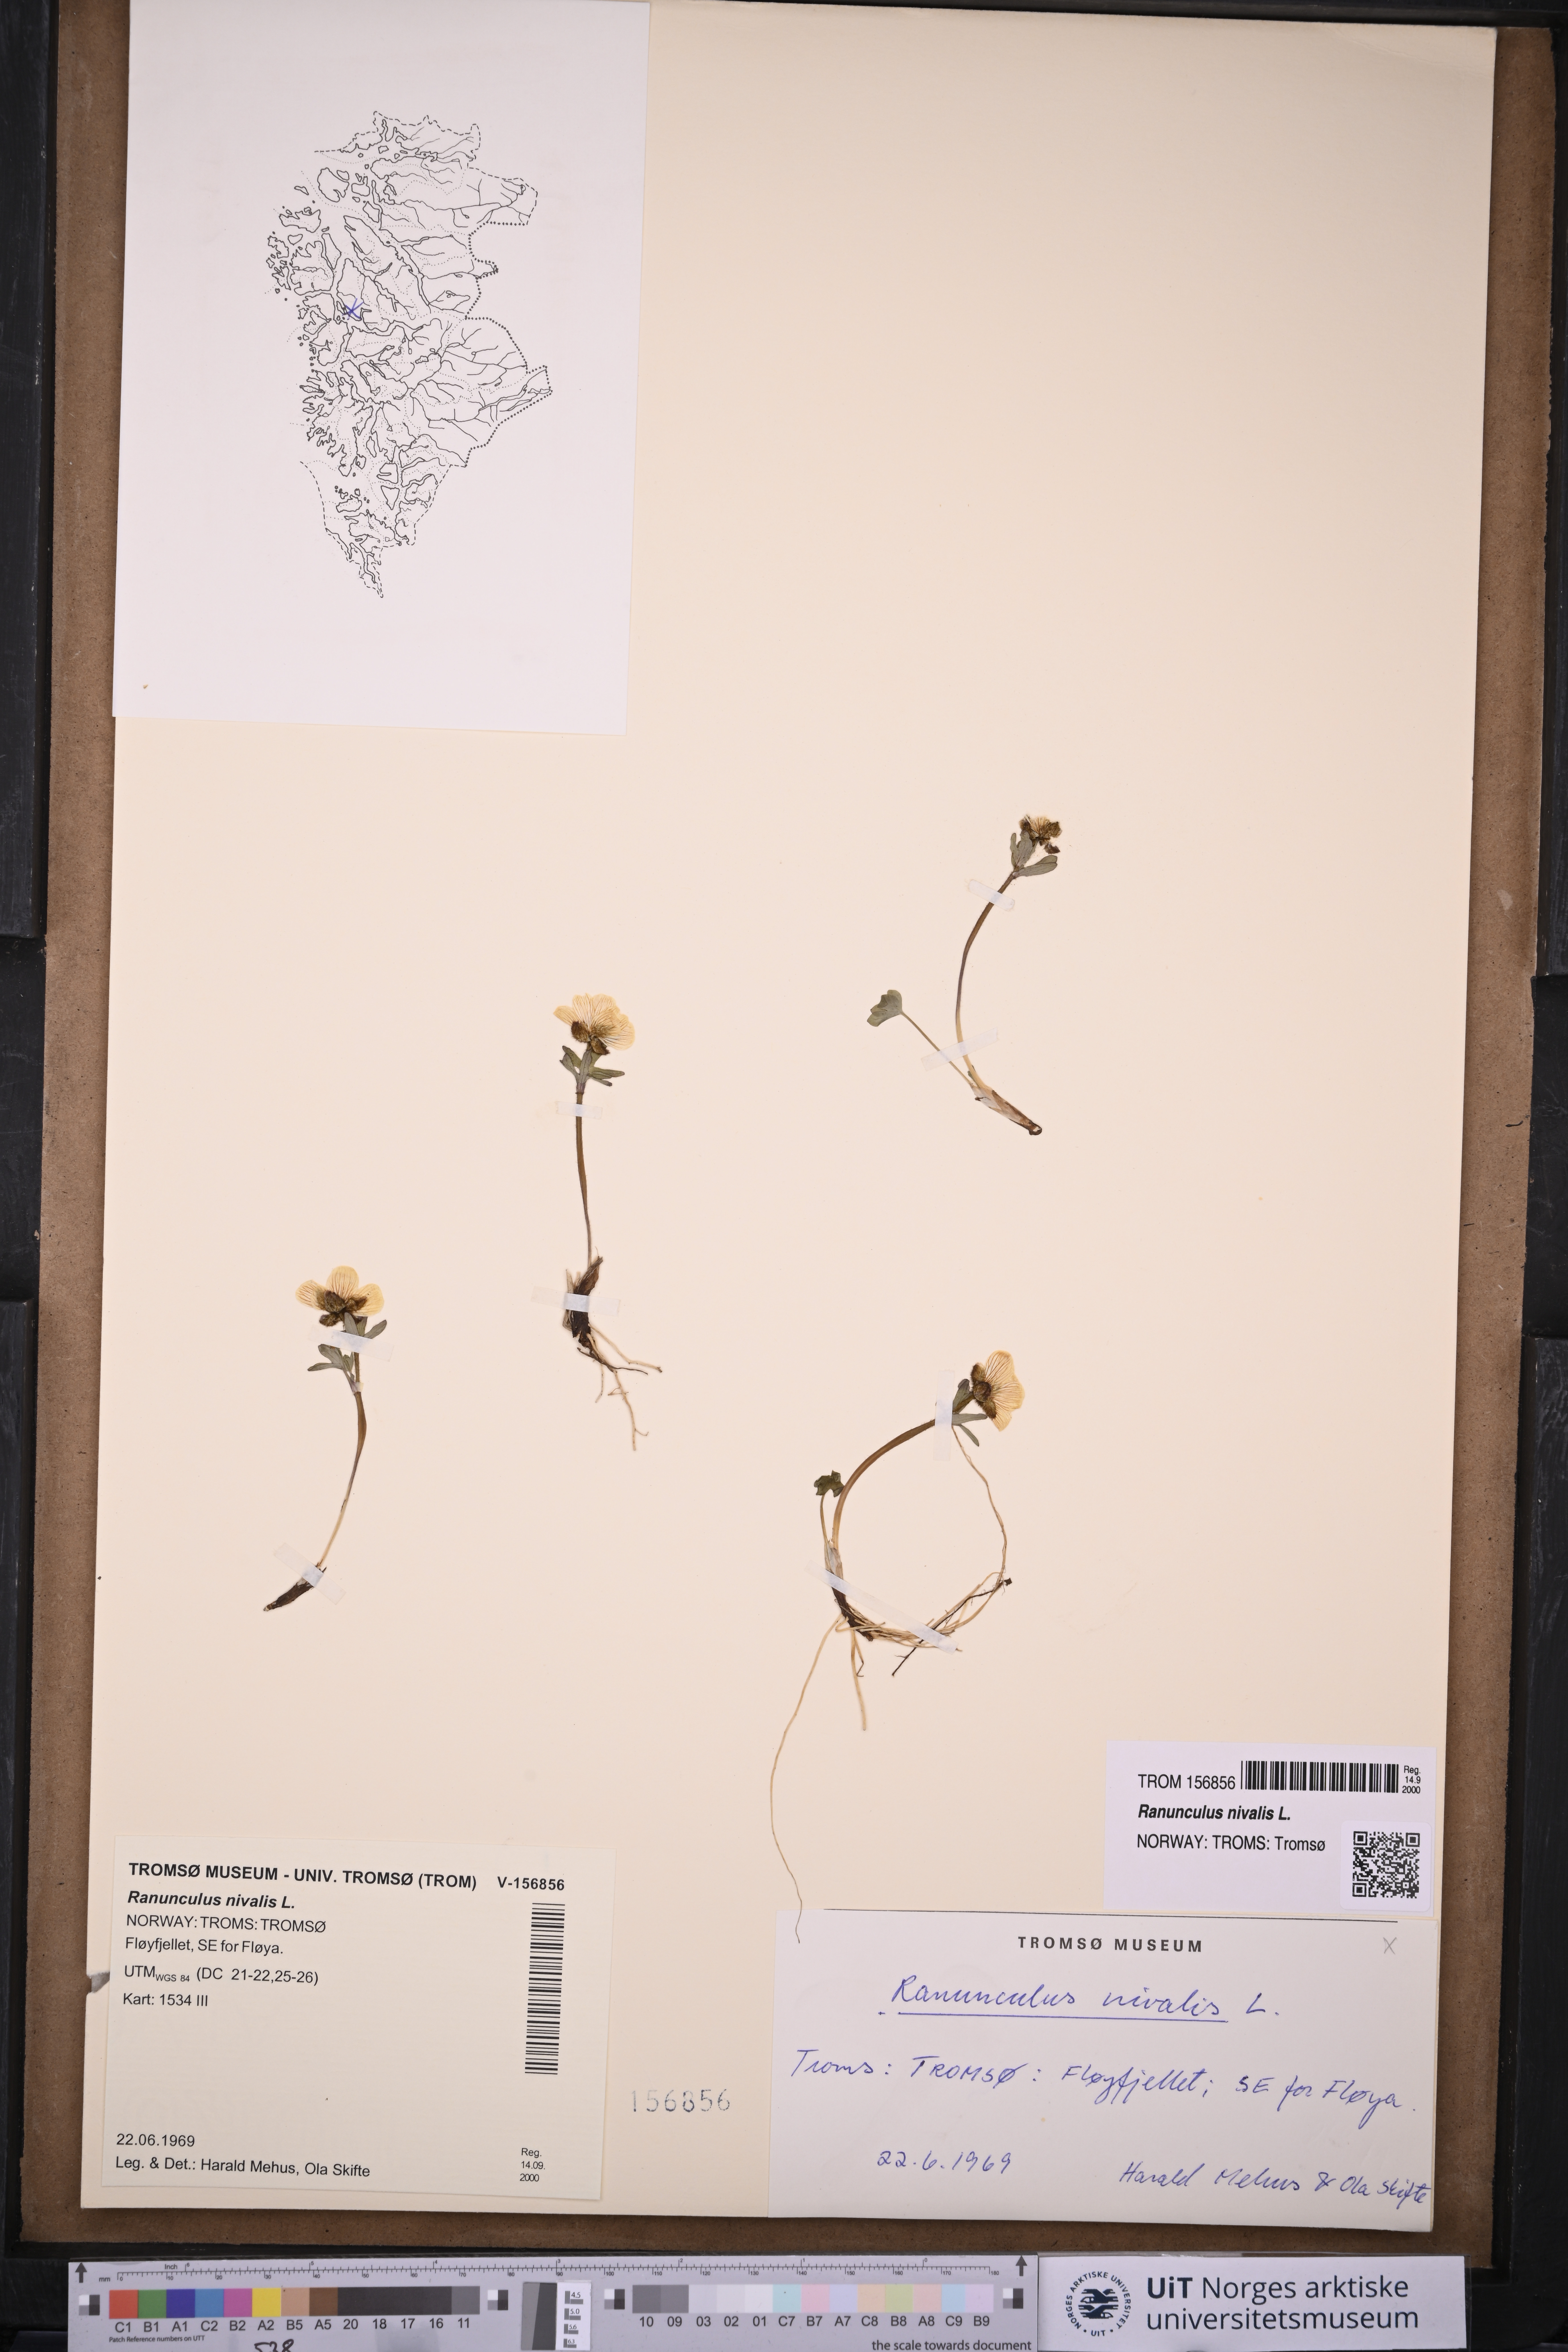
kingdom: Plantae
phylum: Tracheophyta
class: Magnoliopsida
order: Ranunculales
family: Ranunculaceae
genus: Ranunculus
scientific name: Ranunculus nivalis
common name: Snow buttercup
